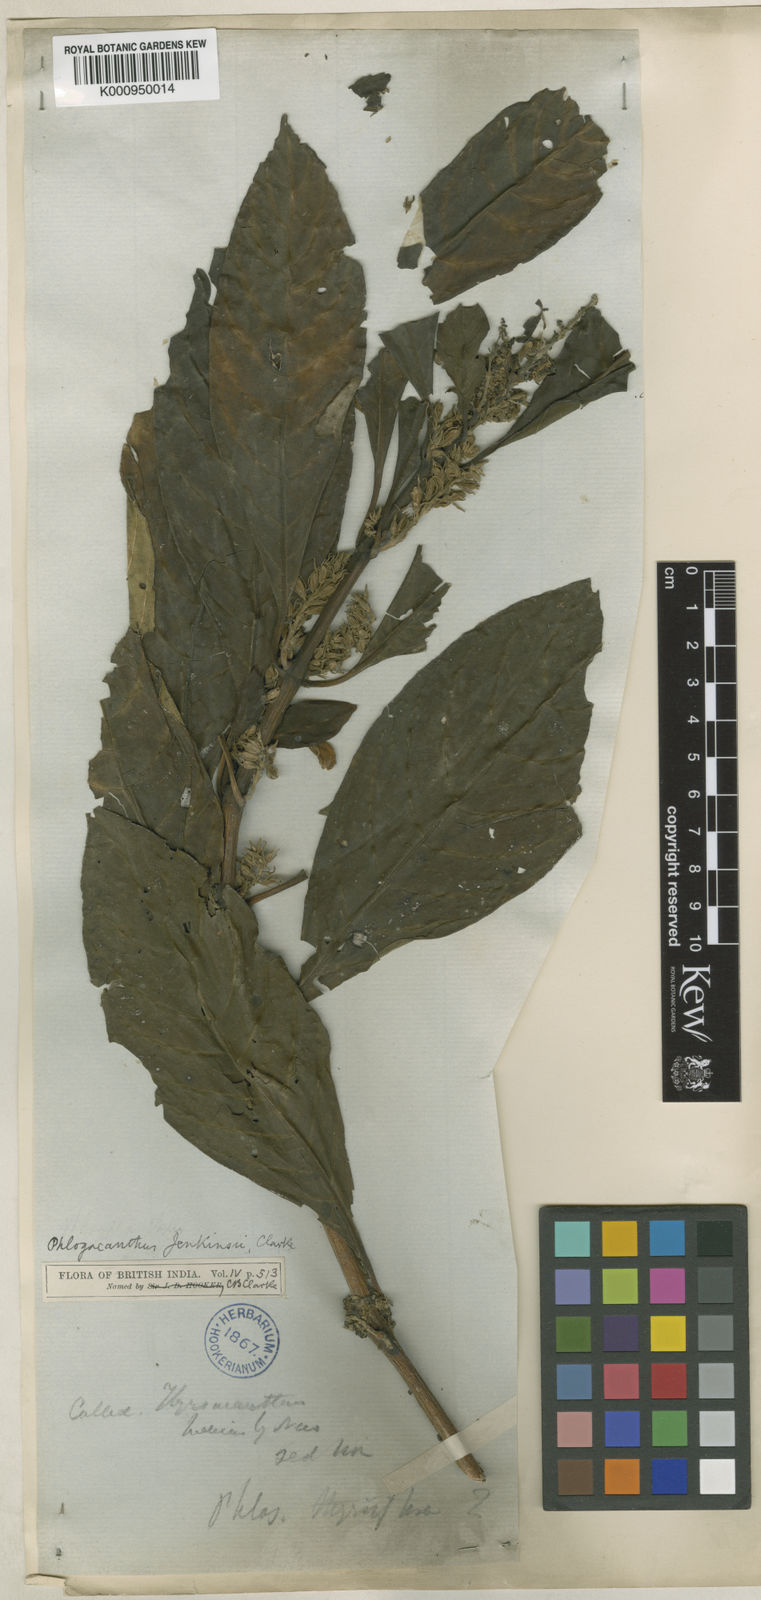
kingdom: Plantae
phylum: Tracheophyta
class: Magnoliopsida
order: Lamiales
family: Acanthaceae
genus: Phlogacanthus
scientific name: Phlogacanthus jenkinsii
